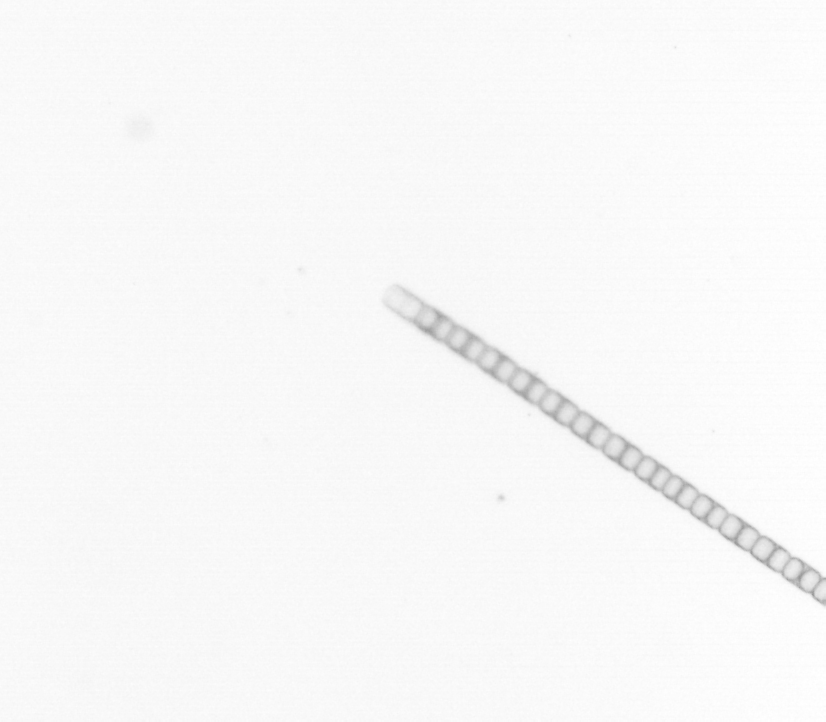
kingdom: Chromista
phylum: Ochrophyta
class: Bacillariophyceae
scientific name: Bacillariophyceae
